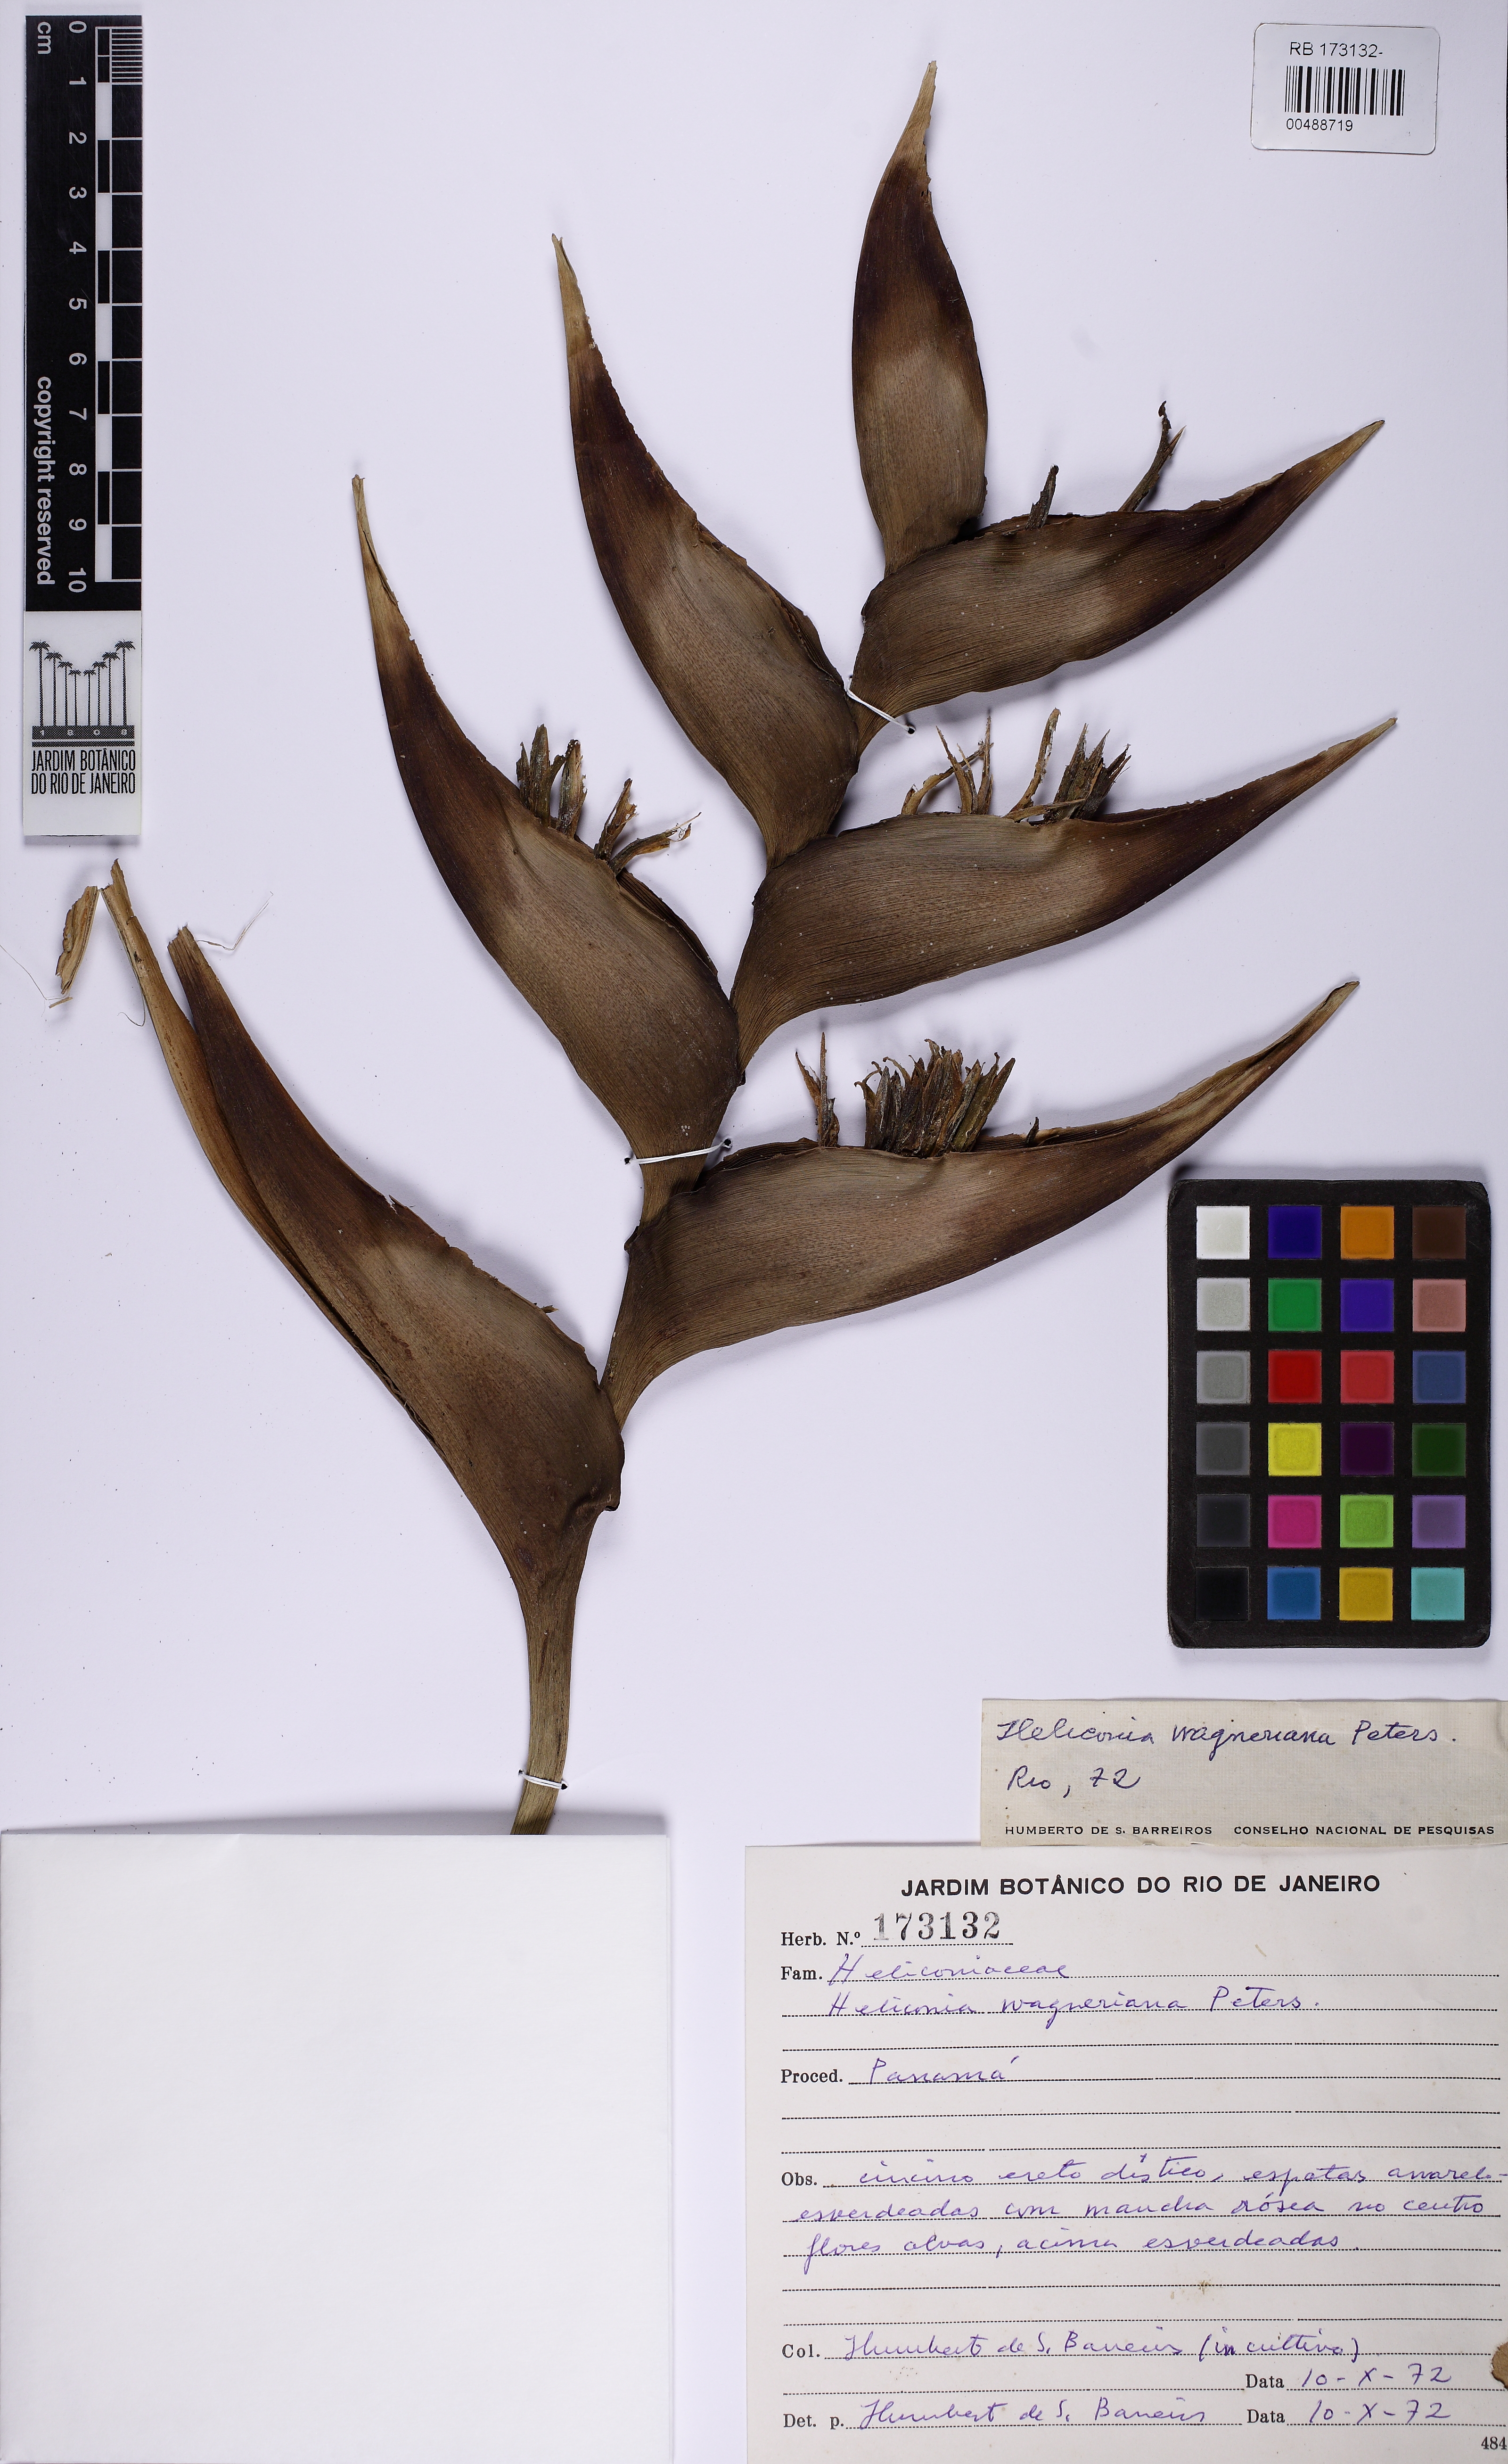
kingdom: Plantae
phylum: Tracheophyta
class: Liliopsida
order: Zingiberales
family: Heliconiaceae
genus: Heliconia
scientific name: Heliconia wagneriana
